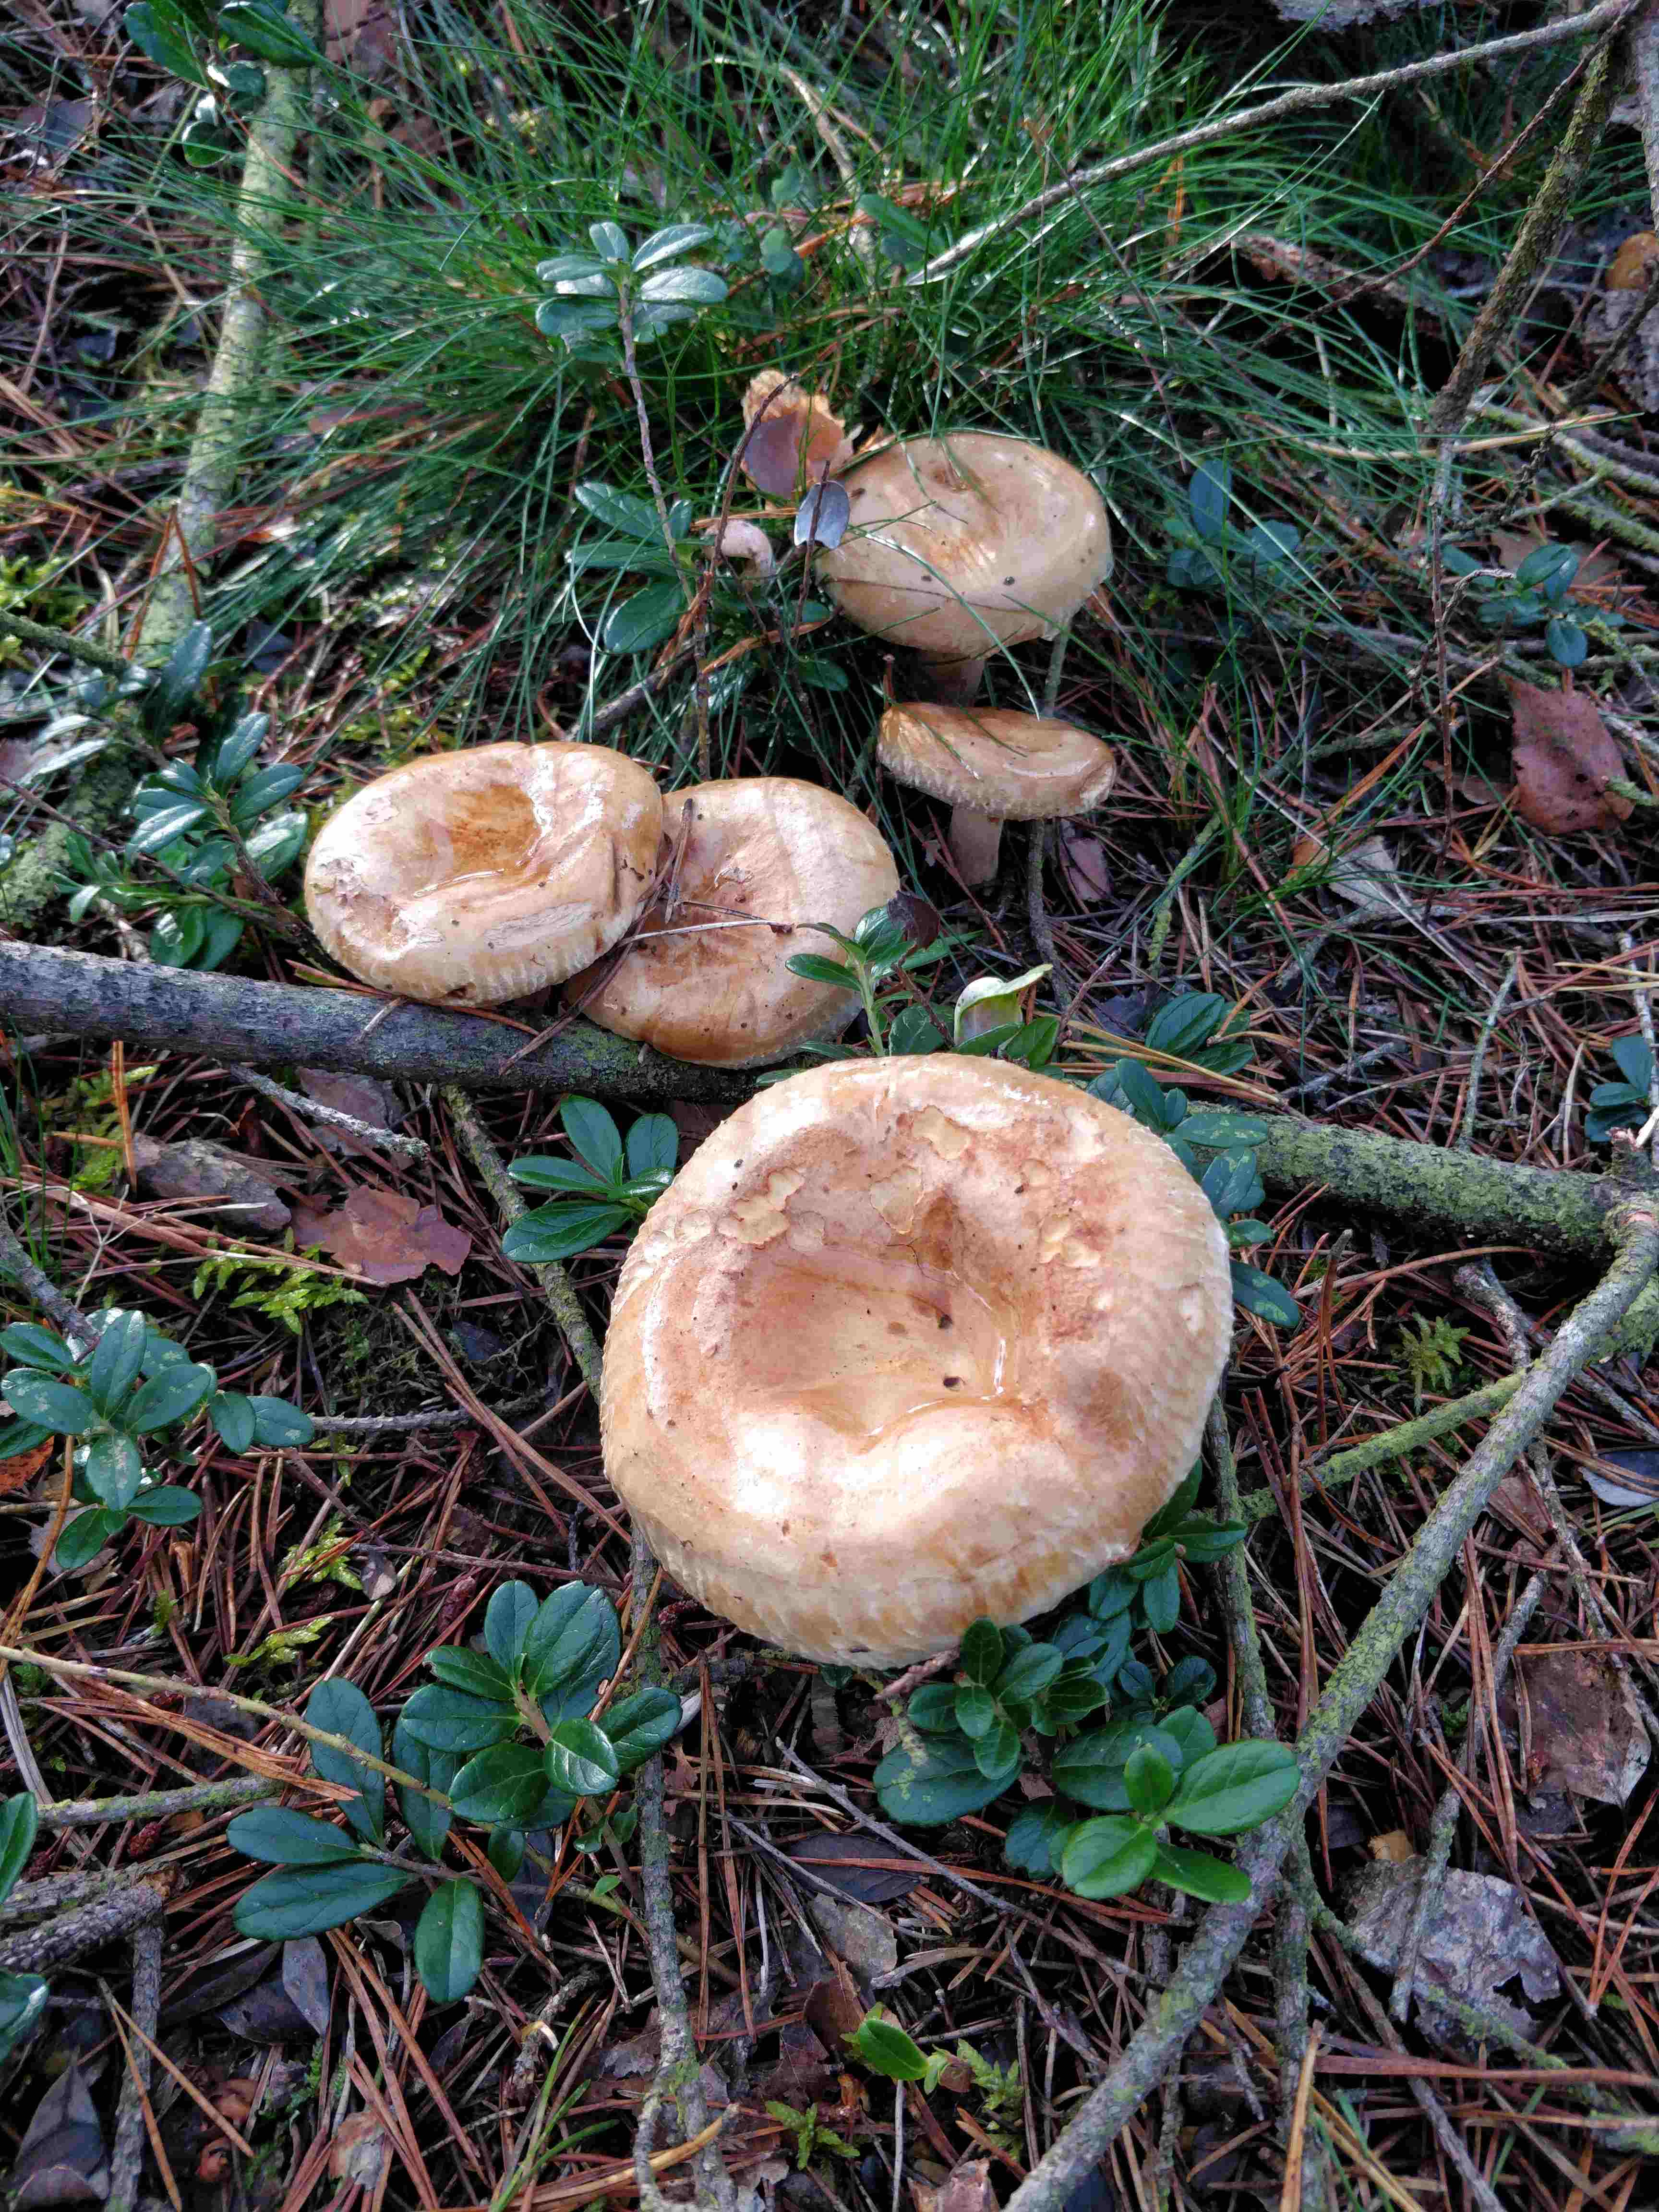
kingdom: Fungi
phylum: Basidiomycota
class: Agaricomycetes
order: Boletales
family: Paxillaceae
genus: Paxillus
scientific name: Paxillus involutus
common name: almindelig netbladhat
